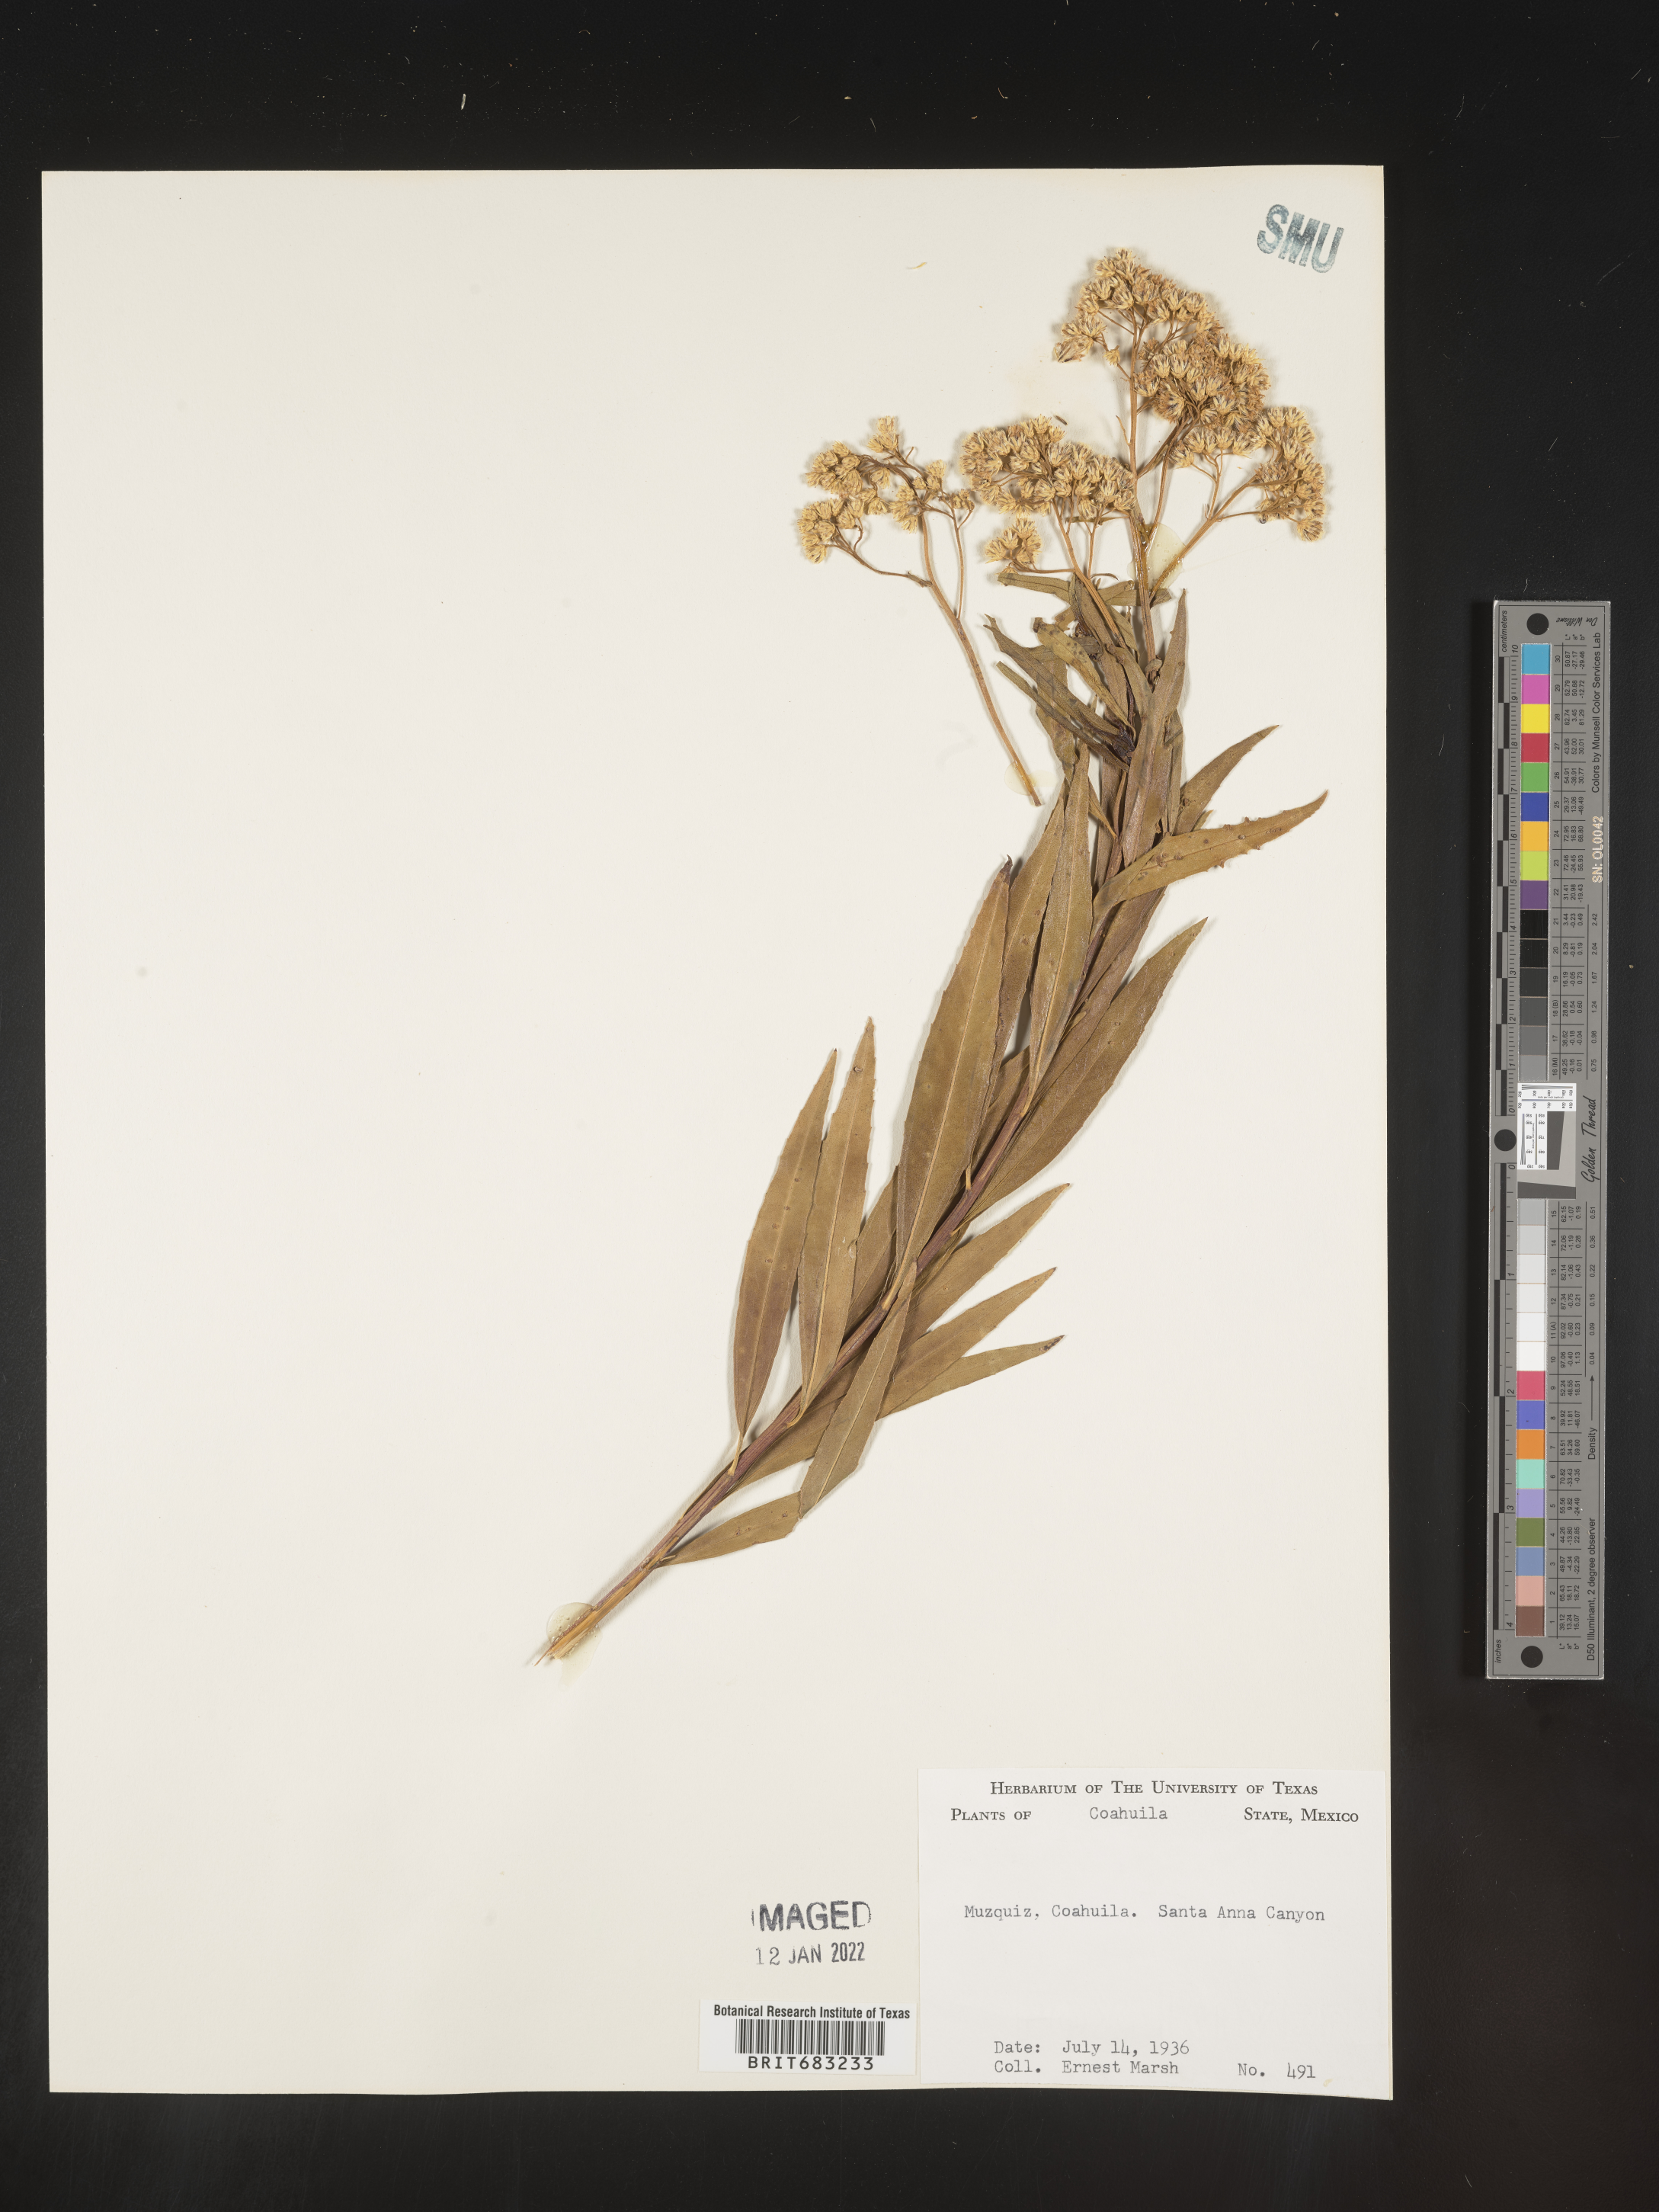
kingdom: Plantae
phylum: Tracheophyta
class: Magnoliopsida
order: Asterales
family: Asteraceae
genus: Baccharis
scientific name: Baccharis salicifolia
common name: Sticky baccharis
